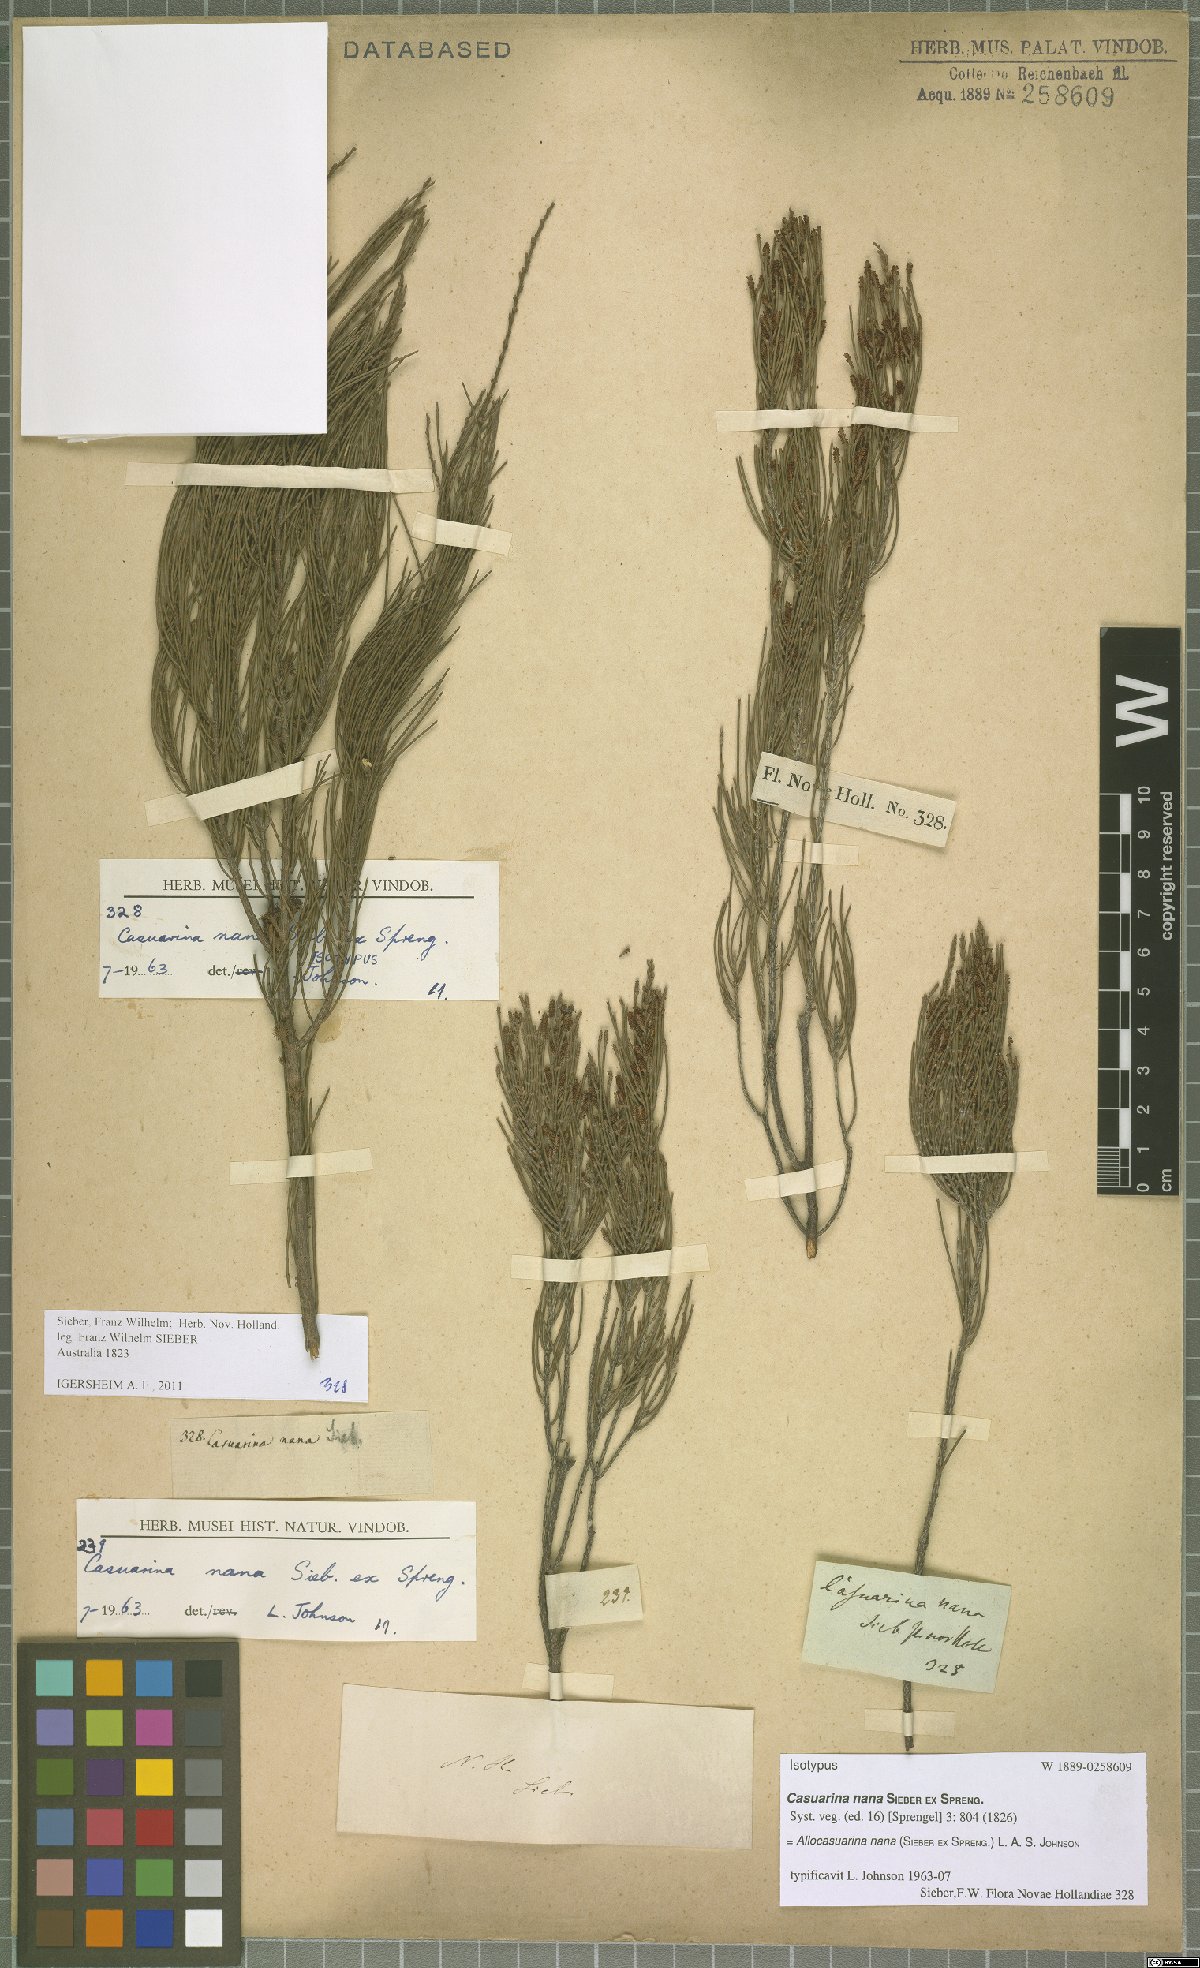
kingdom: Plantae
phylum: Tracheophyta
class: Magnoliopsida
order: Fagales
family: Casuarinaceae
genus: Allocasuarina
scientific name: Allocasuarina nana
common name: Stunted she-oak
